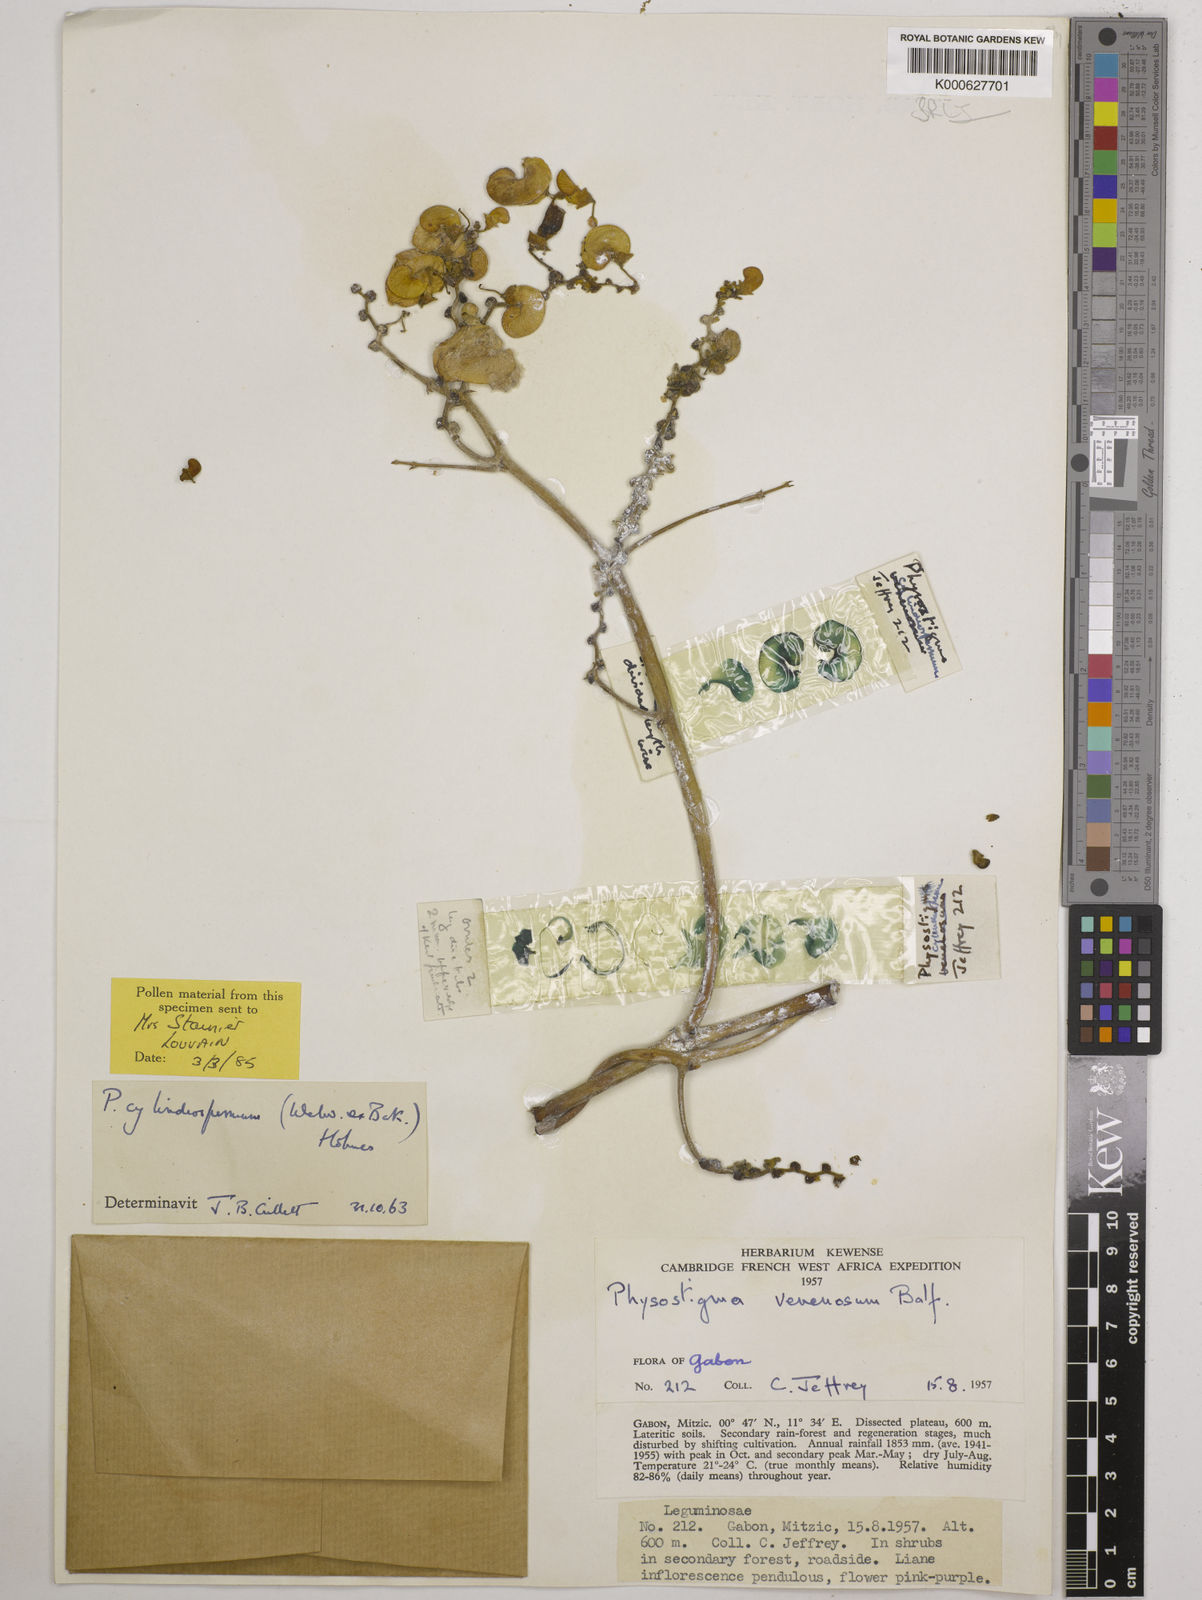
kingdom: Plantae
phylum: Tracheophyta
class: Magnoliopsida
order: Fabales
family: Fabaceae
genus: Physostigma
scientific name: Physostigma cylindrospermum
